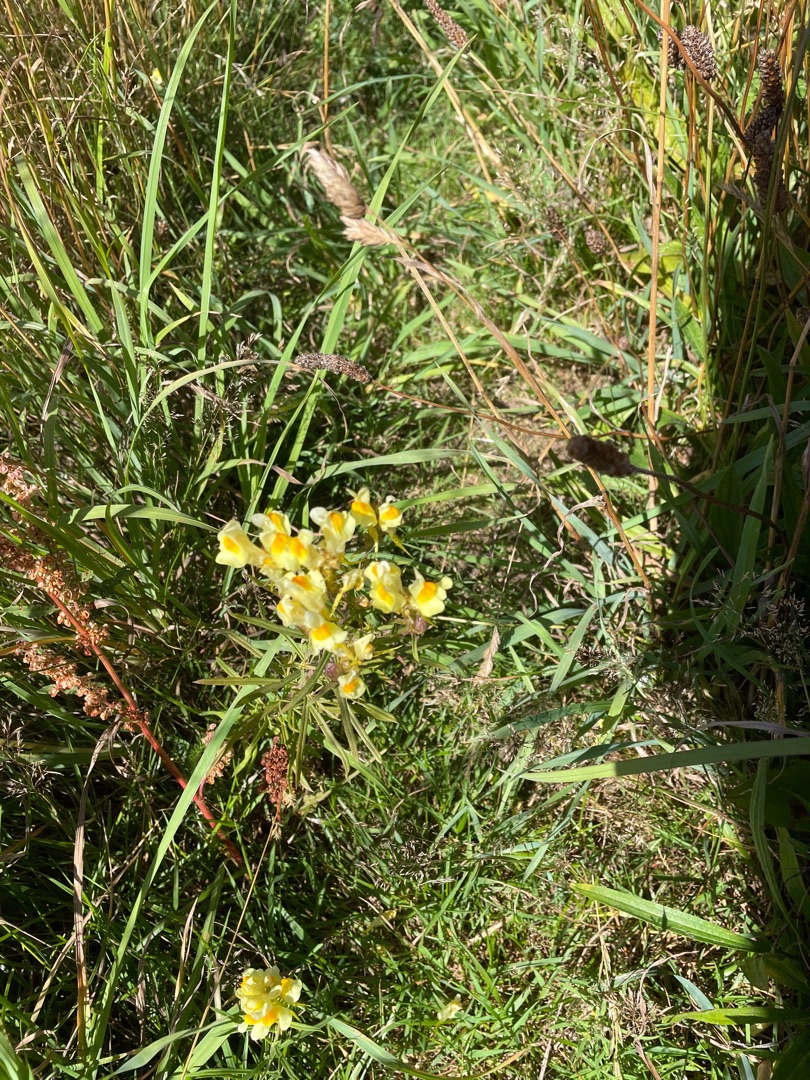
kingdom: Plantae
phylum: Tracheophyta
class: Magnoliopsida
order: Lamiales
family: Plantaginaceae
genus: Linaria
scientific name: Linaria vulgaris
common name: Almindelig torskemund
